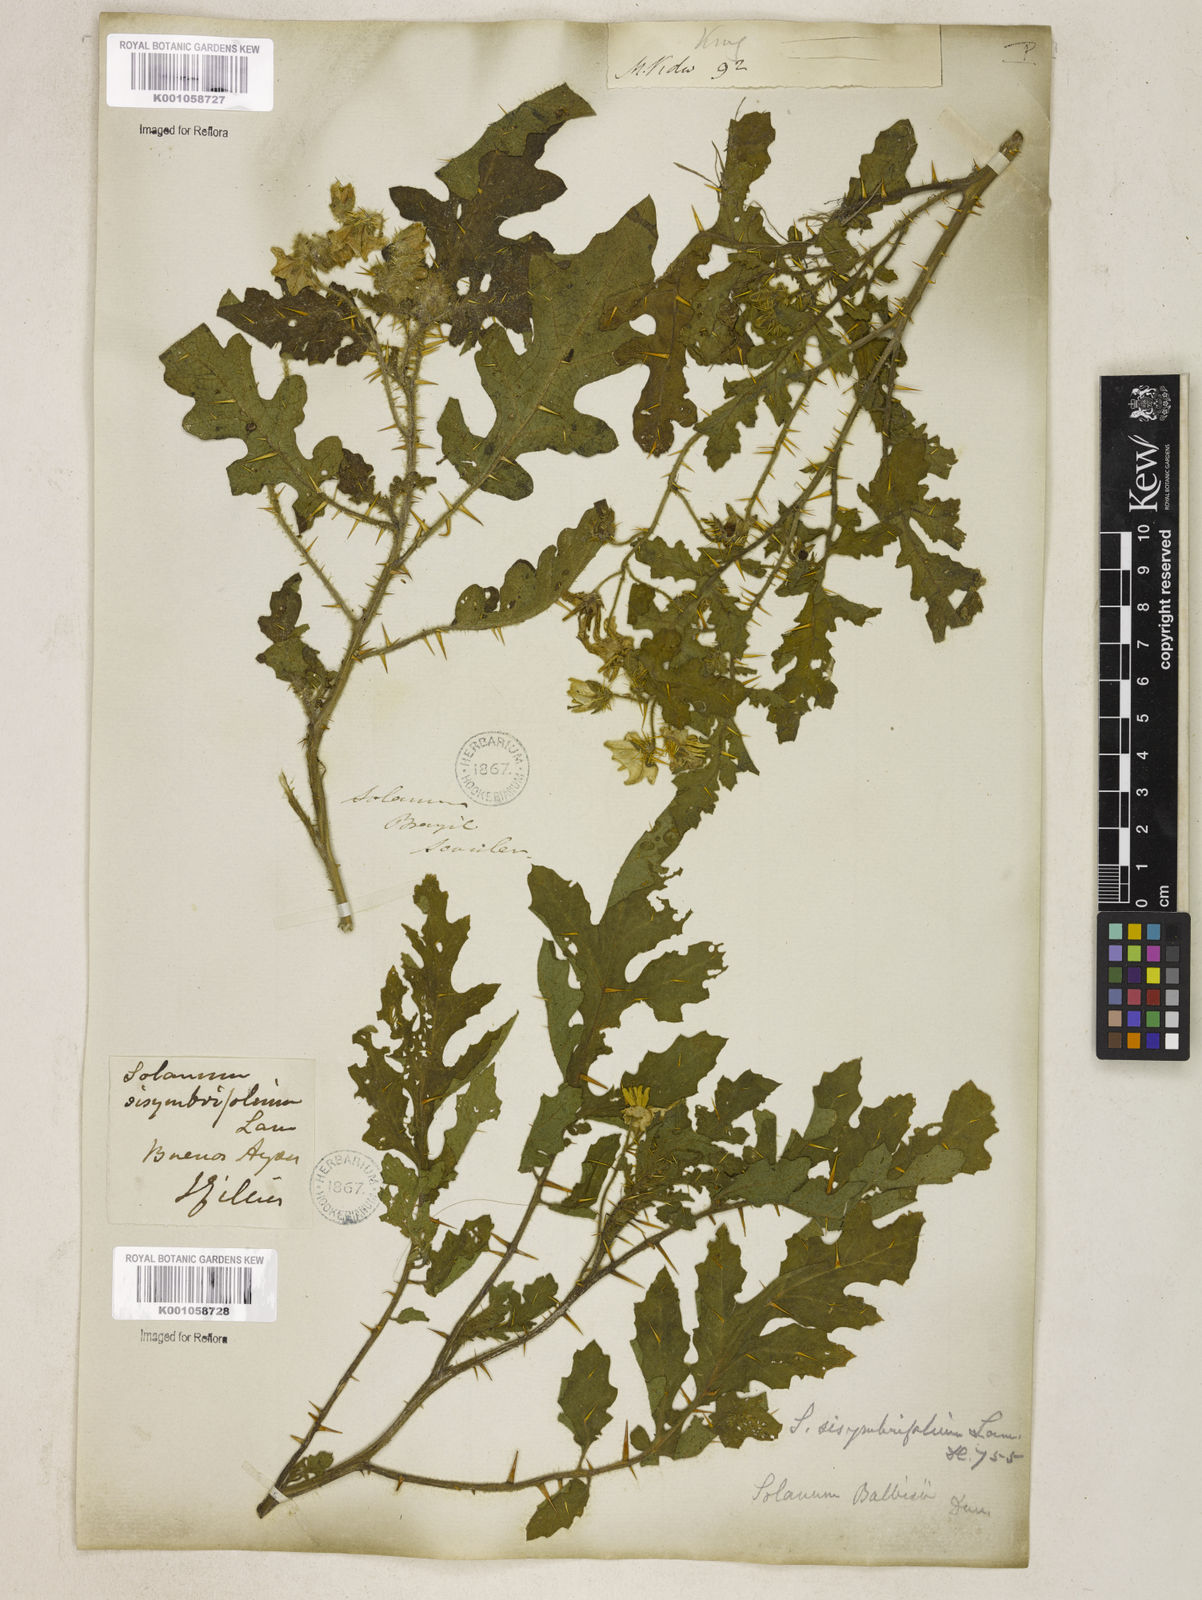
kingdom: Plantae
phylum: Tracheophyta
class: Magnoliopsida
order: Solanales
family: Solanaceae
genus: Solanum
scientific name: Solanum sisymbriifolium
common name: Red buffalo-bur
